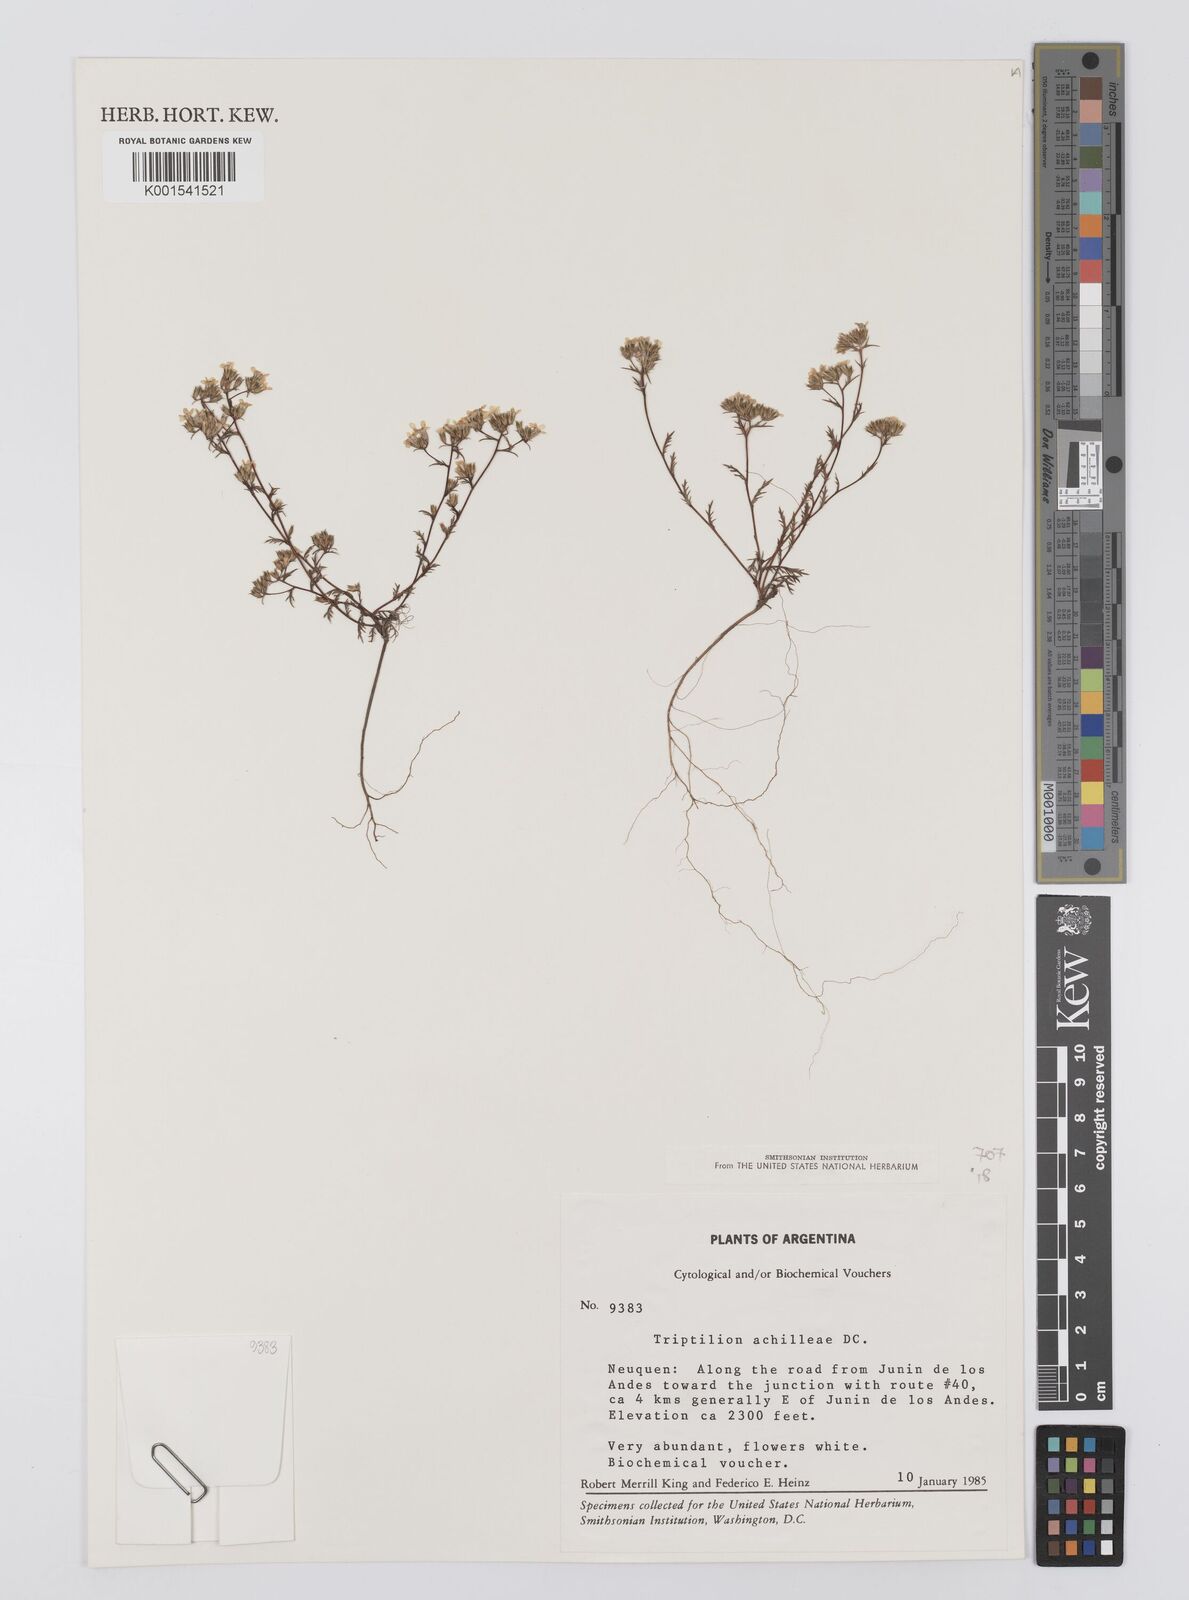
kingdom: Plantae
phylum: Tracheophyta
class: Magnoliopsida
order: Asterales
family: Asteraceae
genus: Triptilion
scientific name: Triptilion achilleae
